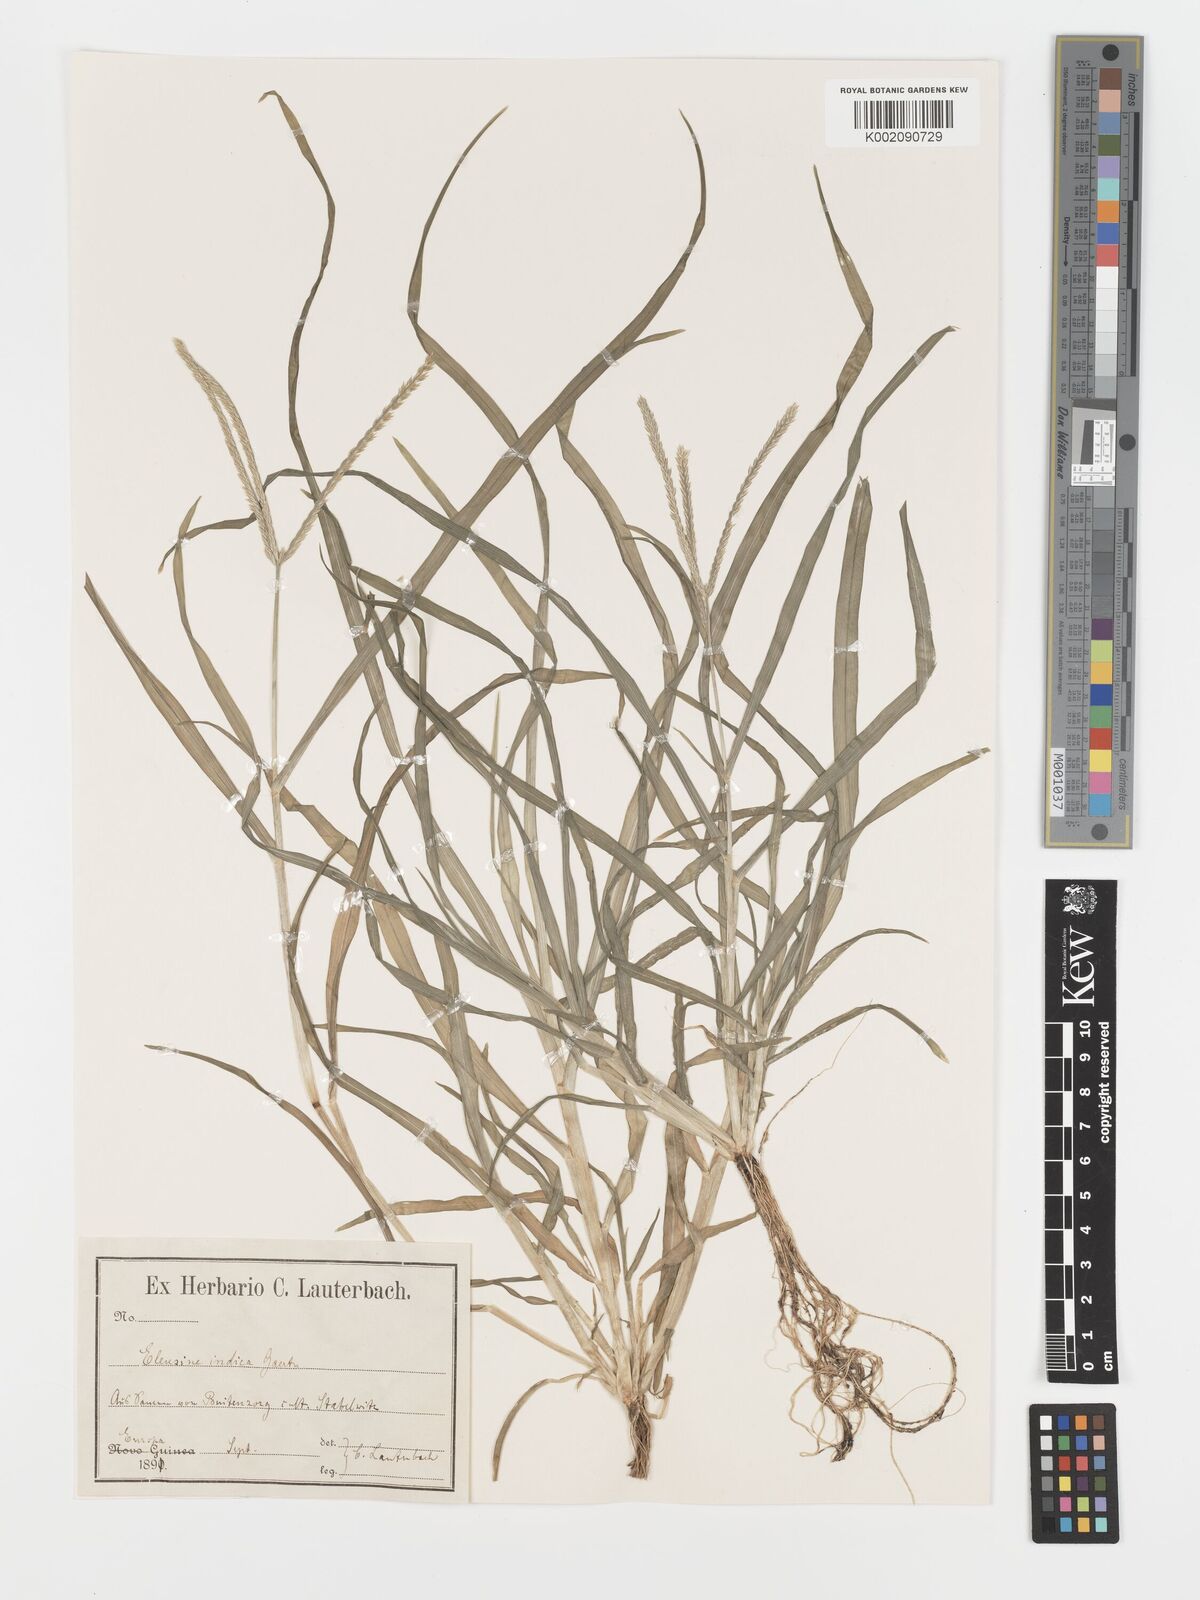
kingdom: Plantae
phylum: Tracheophyta
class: Liliopsida
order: Poales
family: Poaceae
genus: Eleusine
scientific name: Eleusine indica
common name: Yard-grass
